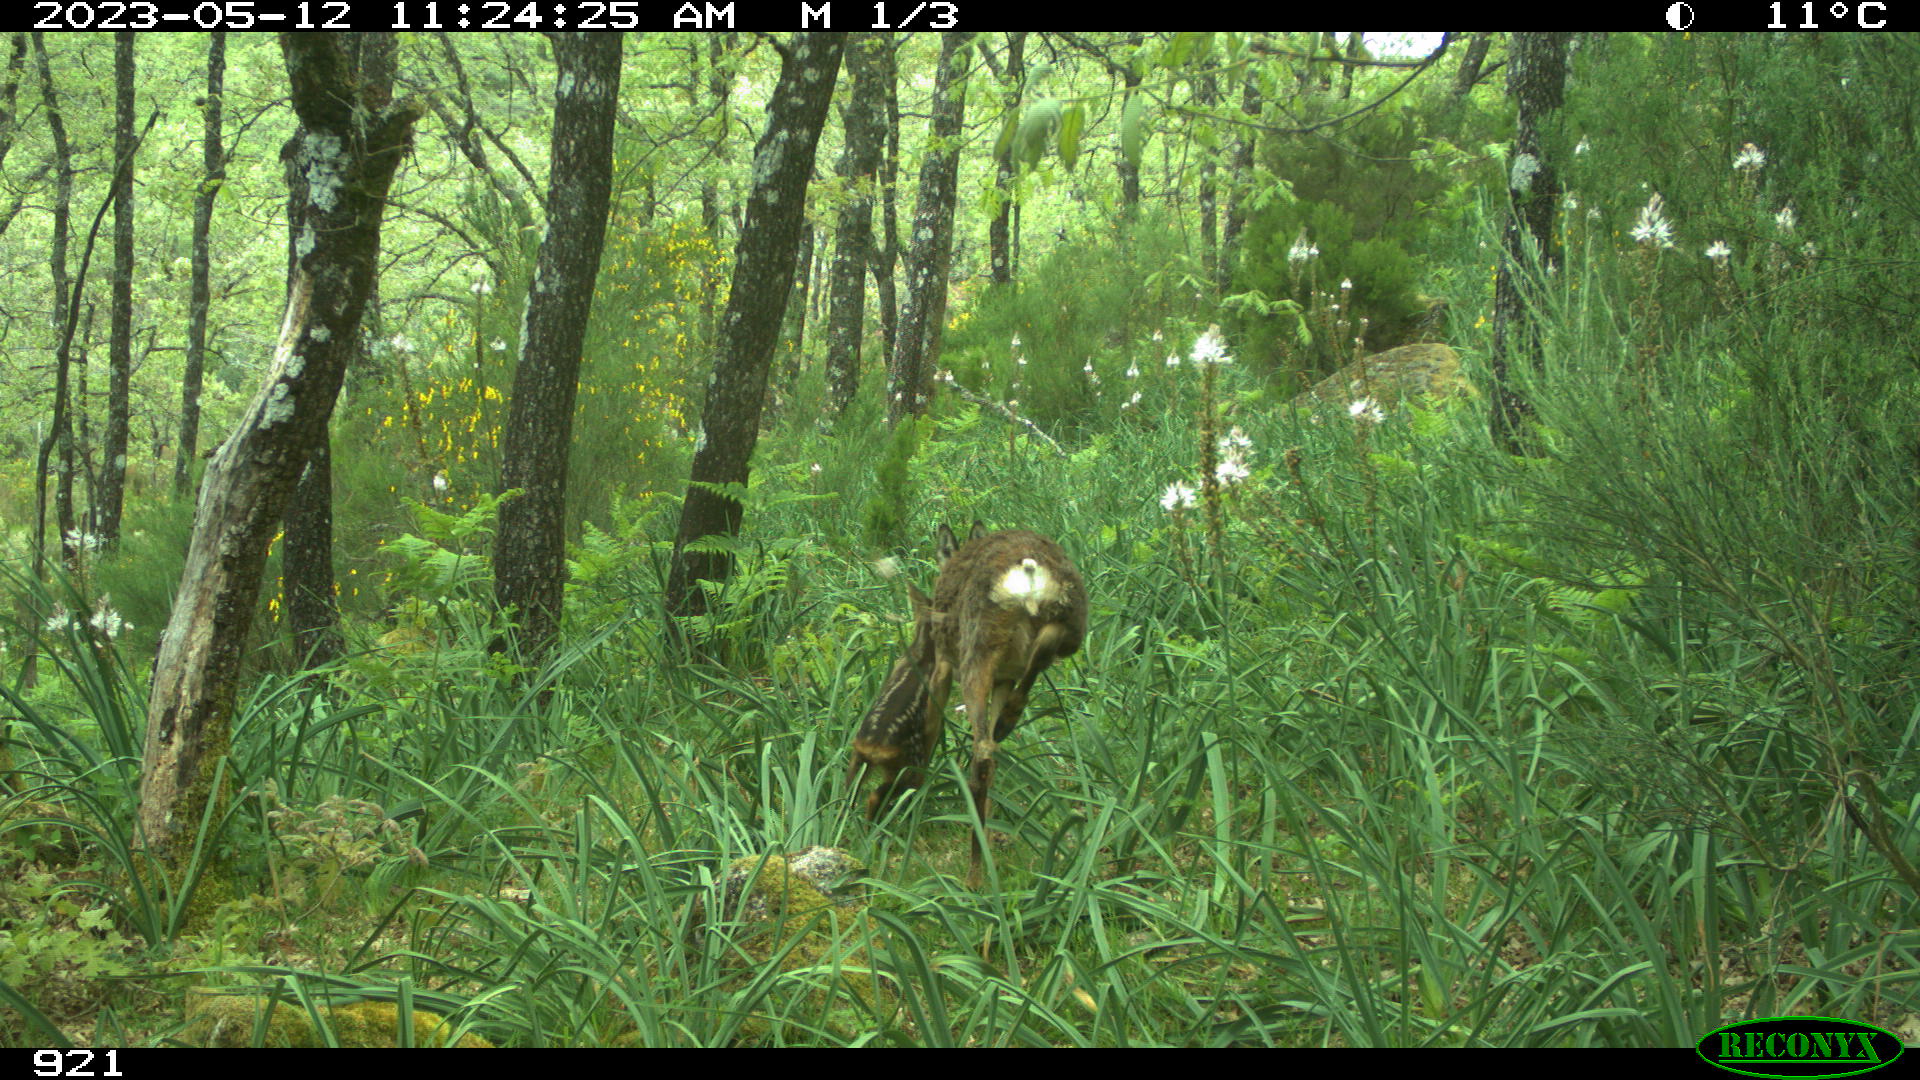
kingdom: Animalia
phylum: Chordata
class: Mammalia
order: Artiodactyla
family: Cervidae
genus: Capreolus
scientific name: Capreolus capreolus
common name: Western roe deer
